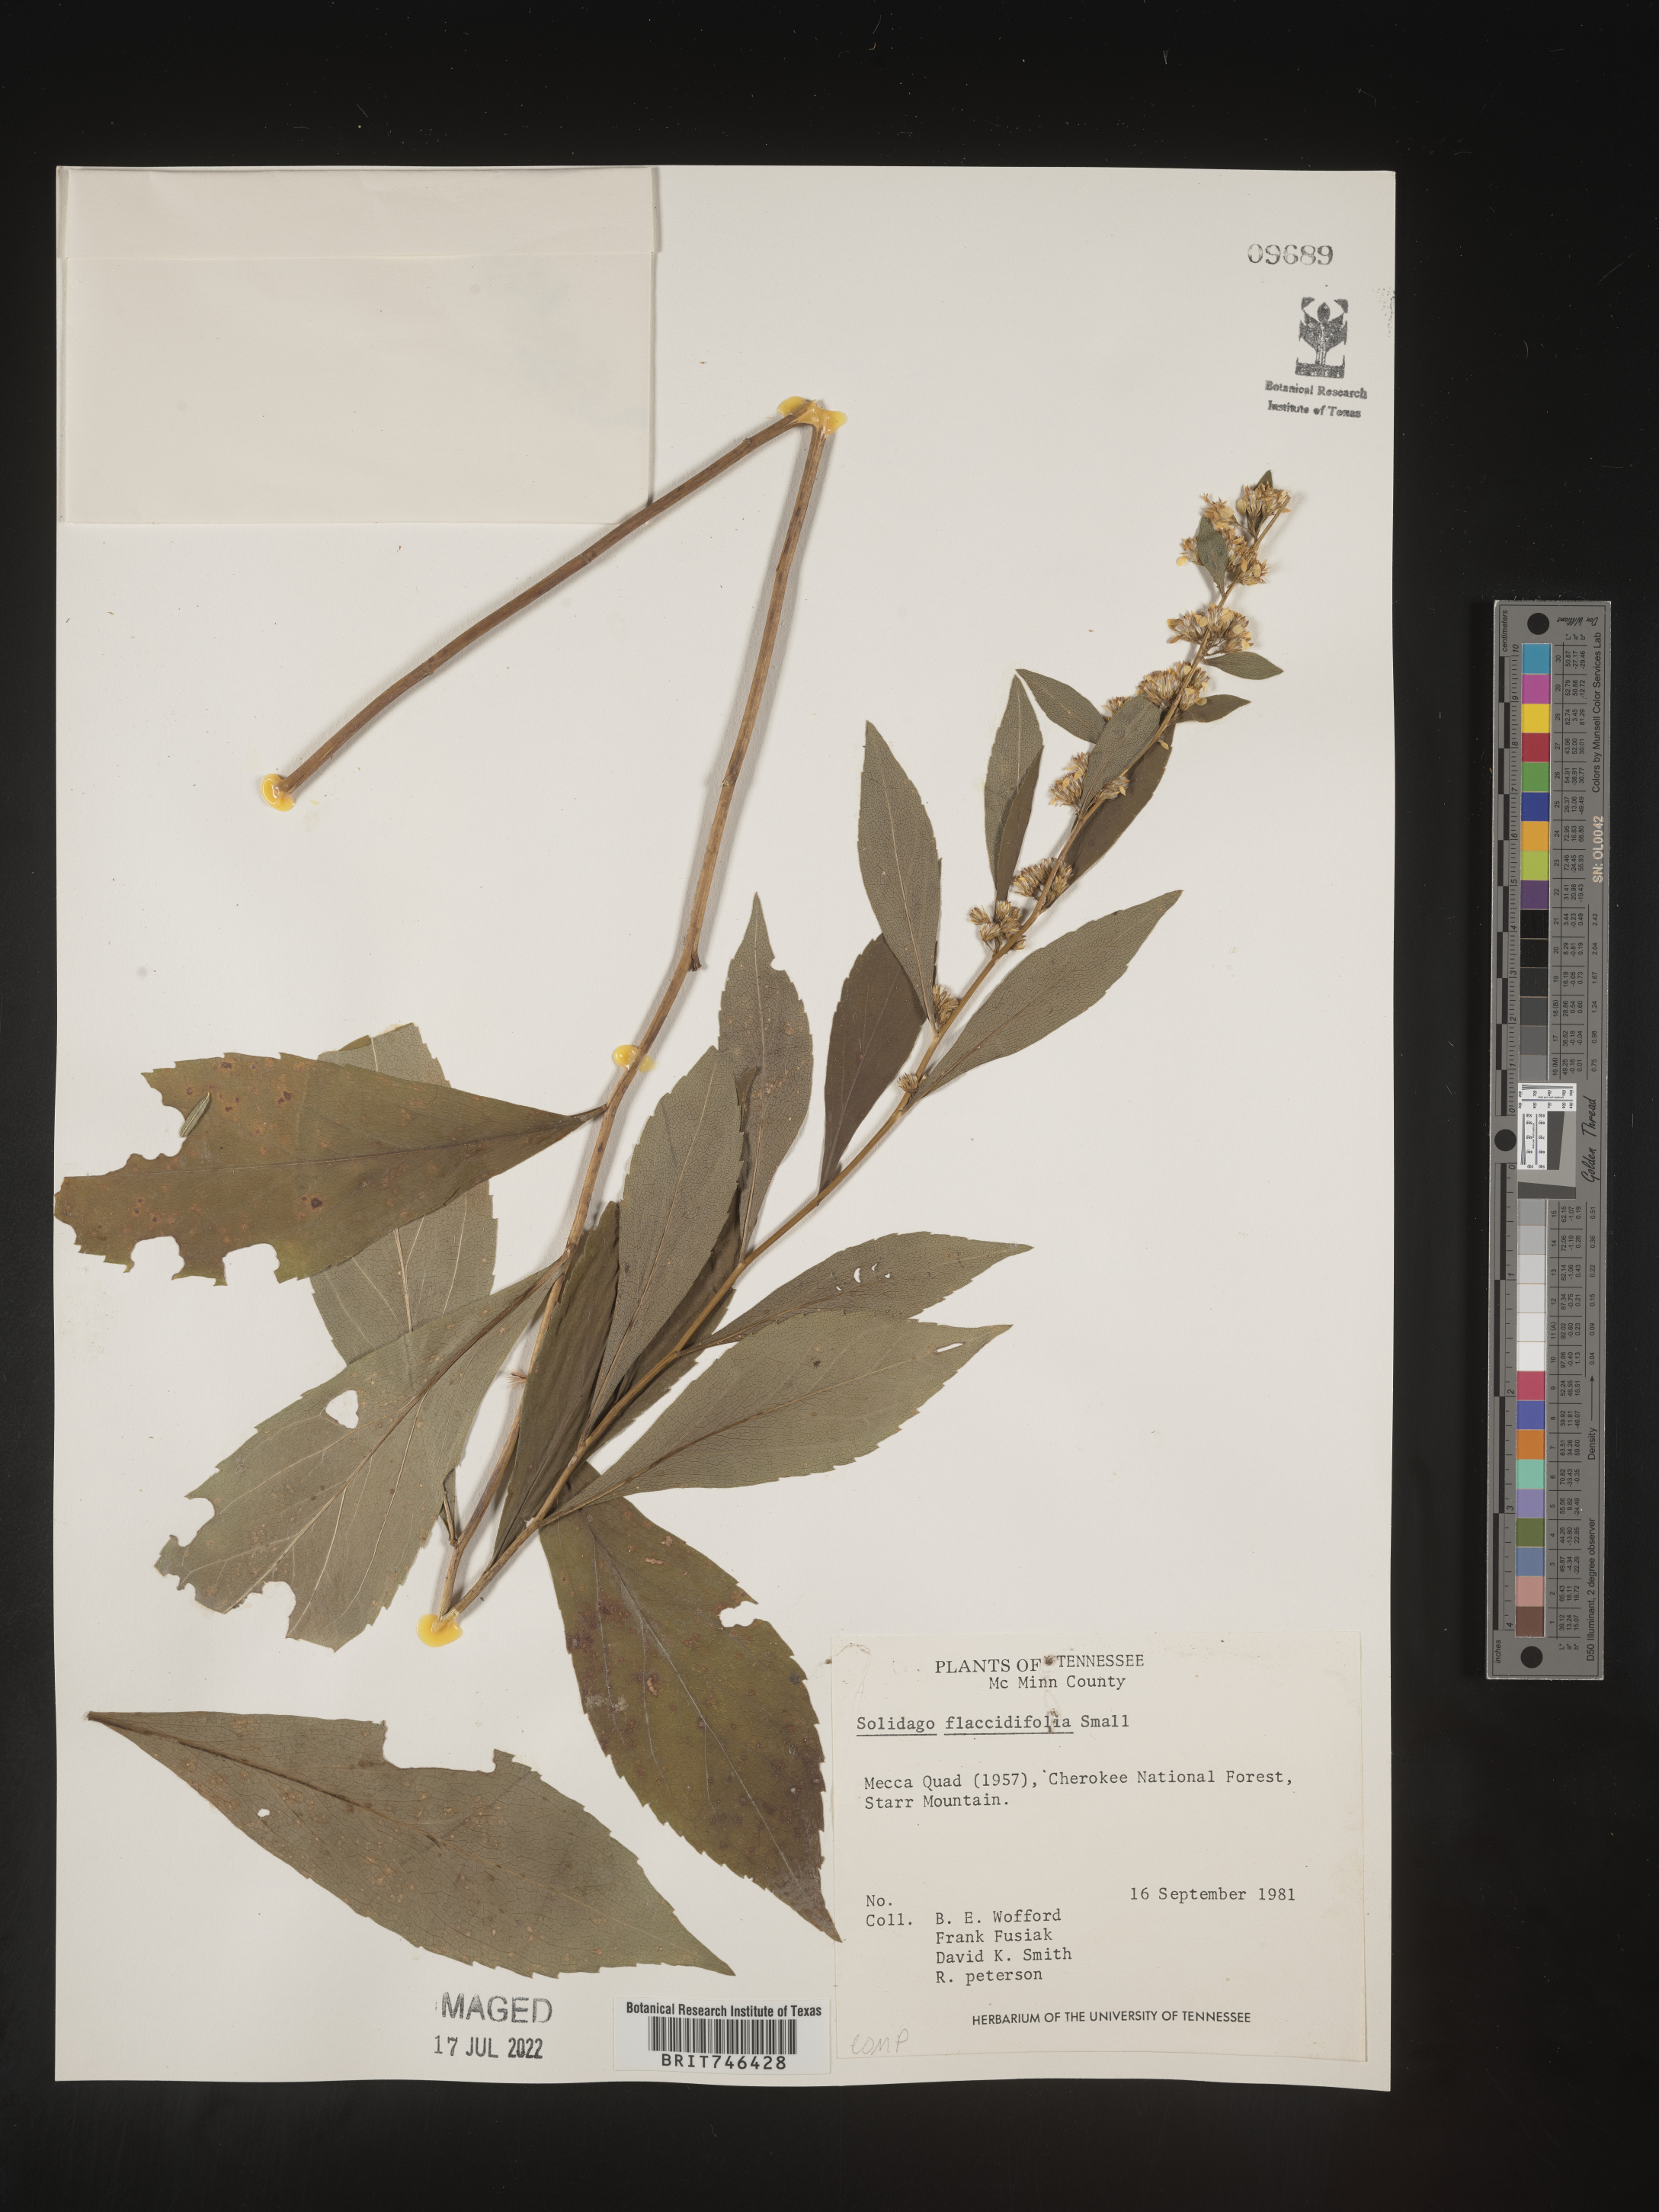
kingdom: Plantae
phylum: Tracheophyta
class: Magnoliopsida
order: Asterales
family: Asteraceae
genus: Solidago
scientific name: Solidago flaccidifolia
